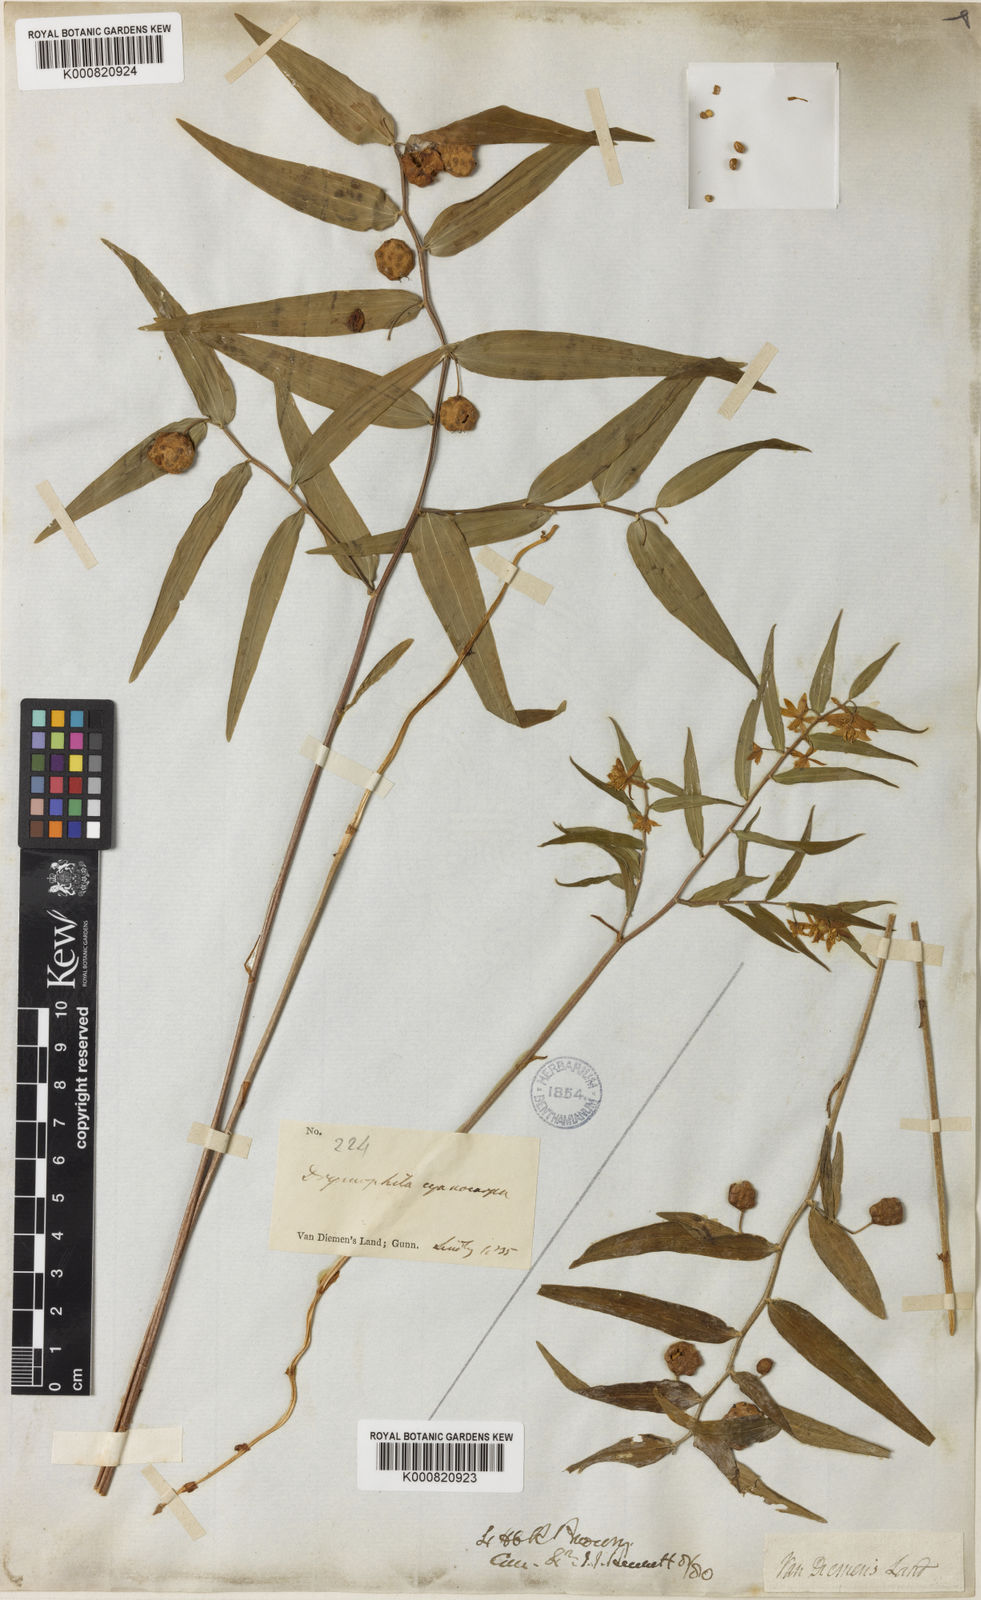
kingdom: Plantae
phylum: Tracheophyta
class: Liliopsida
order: Liliales
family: Alstroemeriaceae
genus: Drymophila
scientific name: Drymophila cyanocarpa
